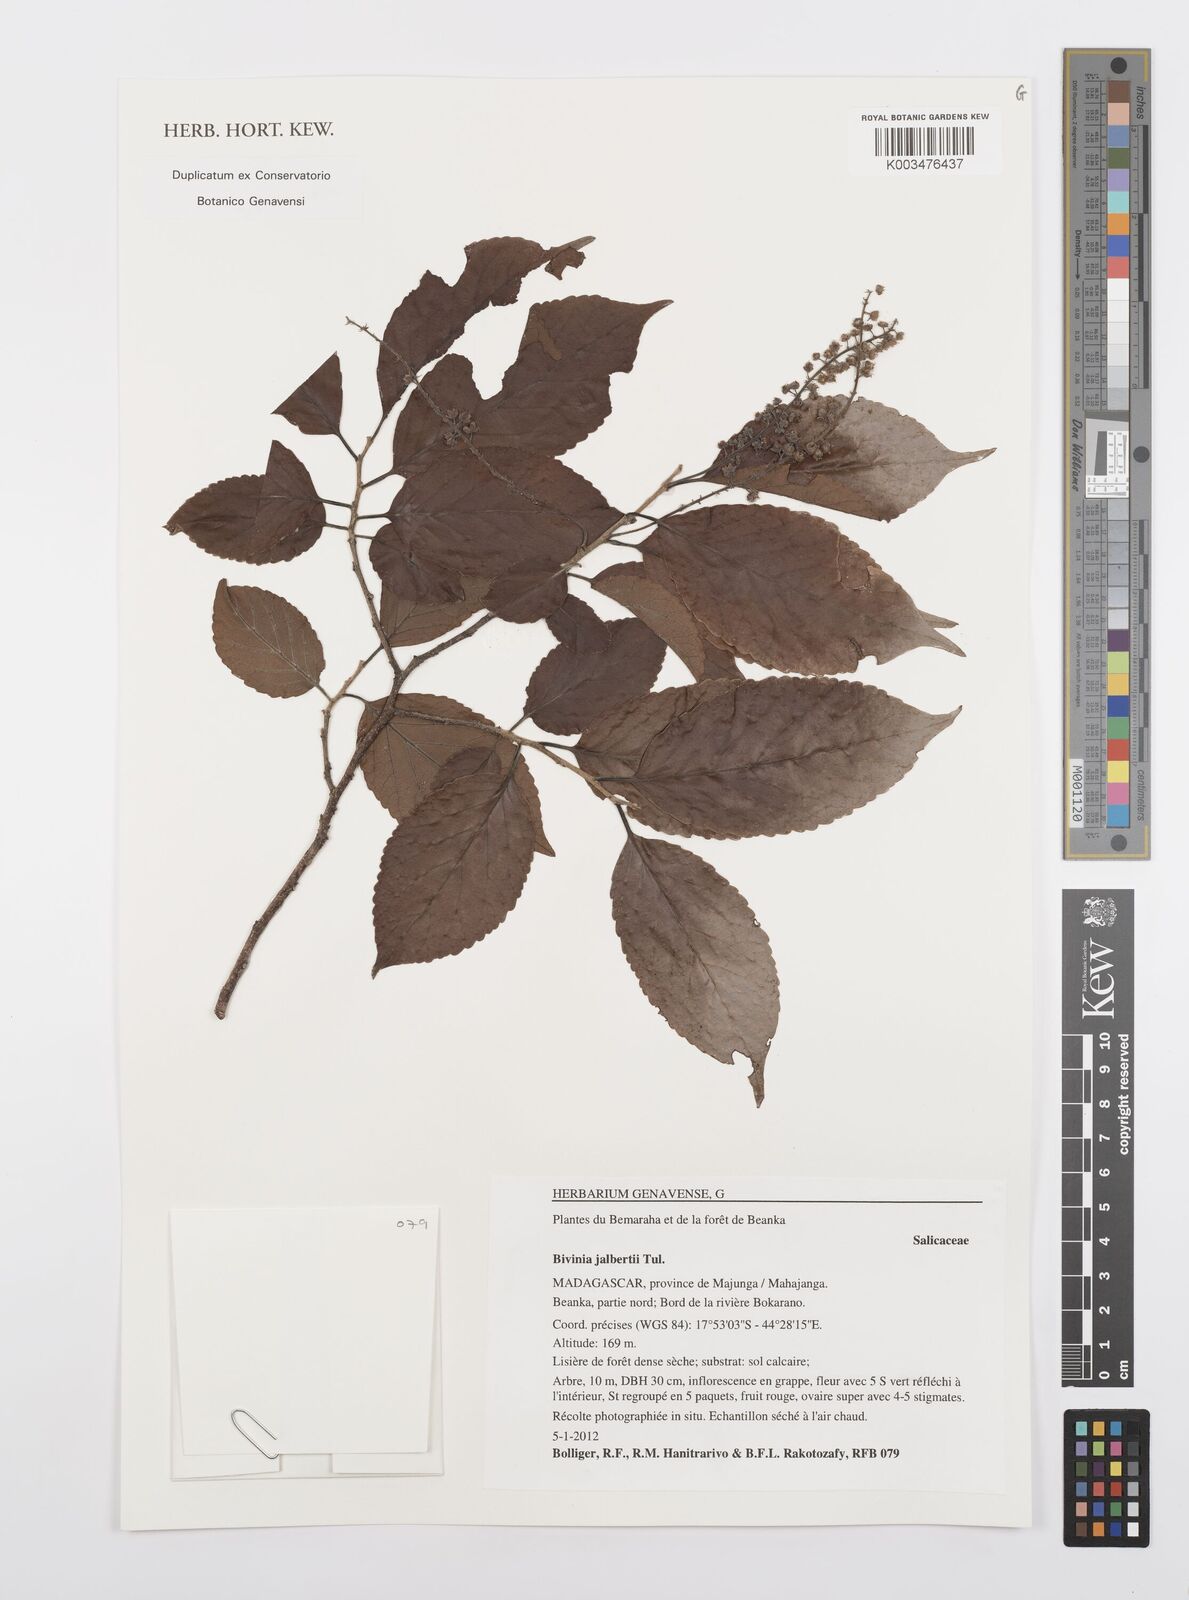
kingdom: Plantae
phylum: Tracheophyta
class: Magnoliopsida
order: Malpighiales
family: Salicaceae
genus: Bivinia
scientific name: Bivinia jalbertii
